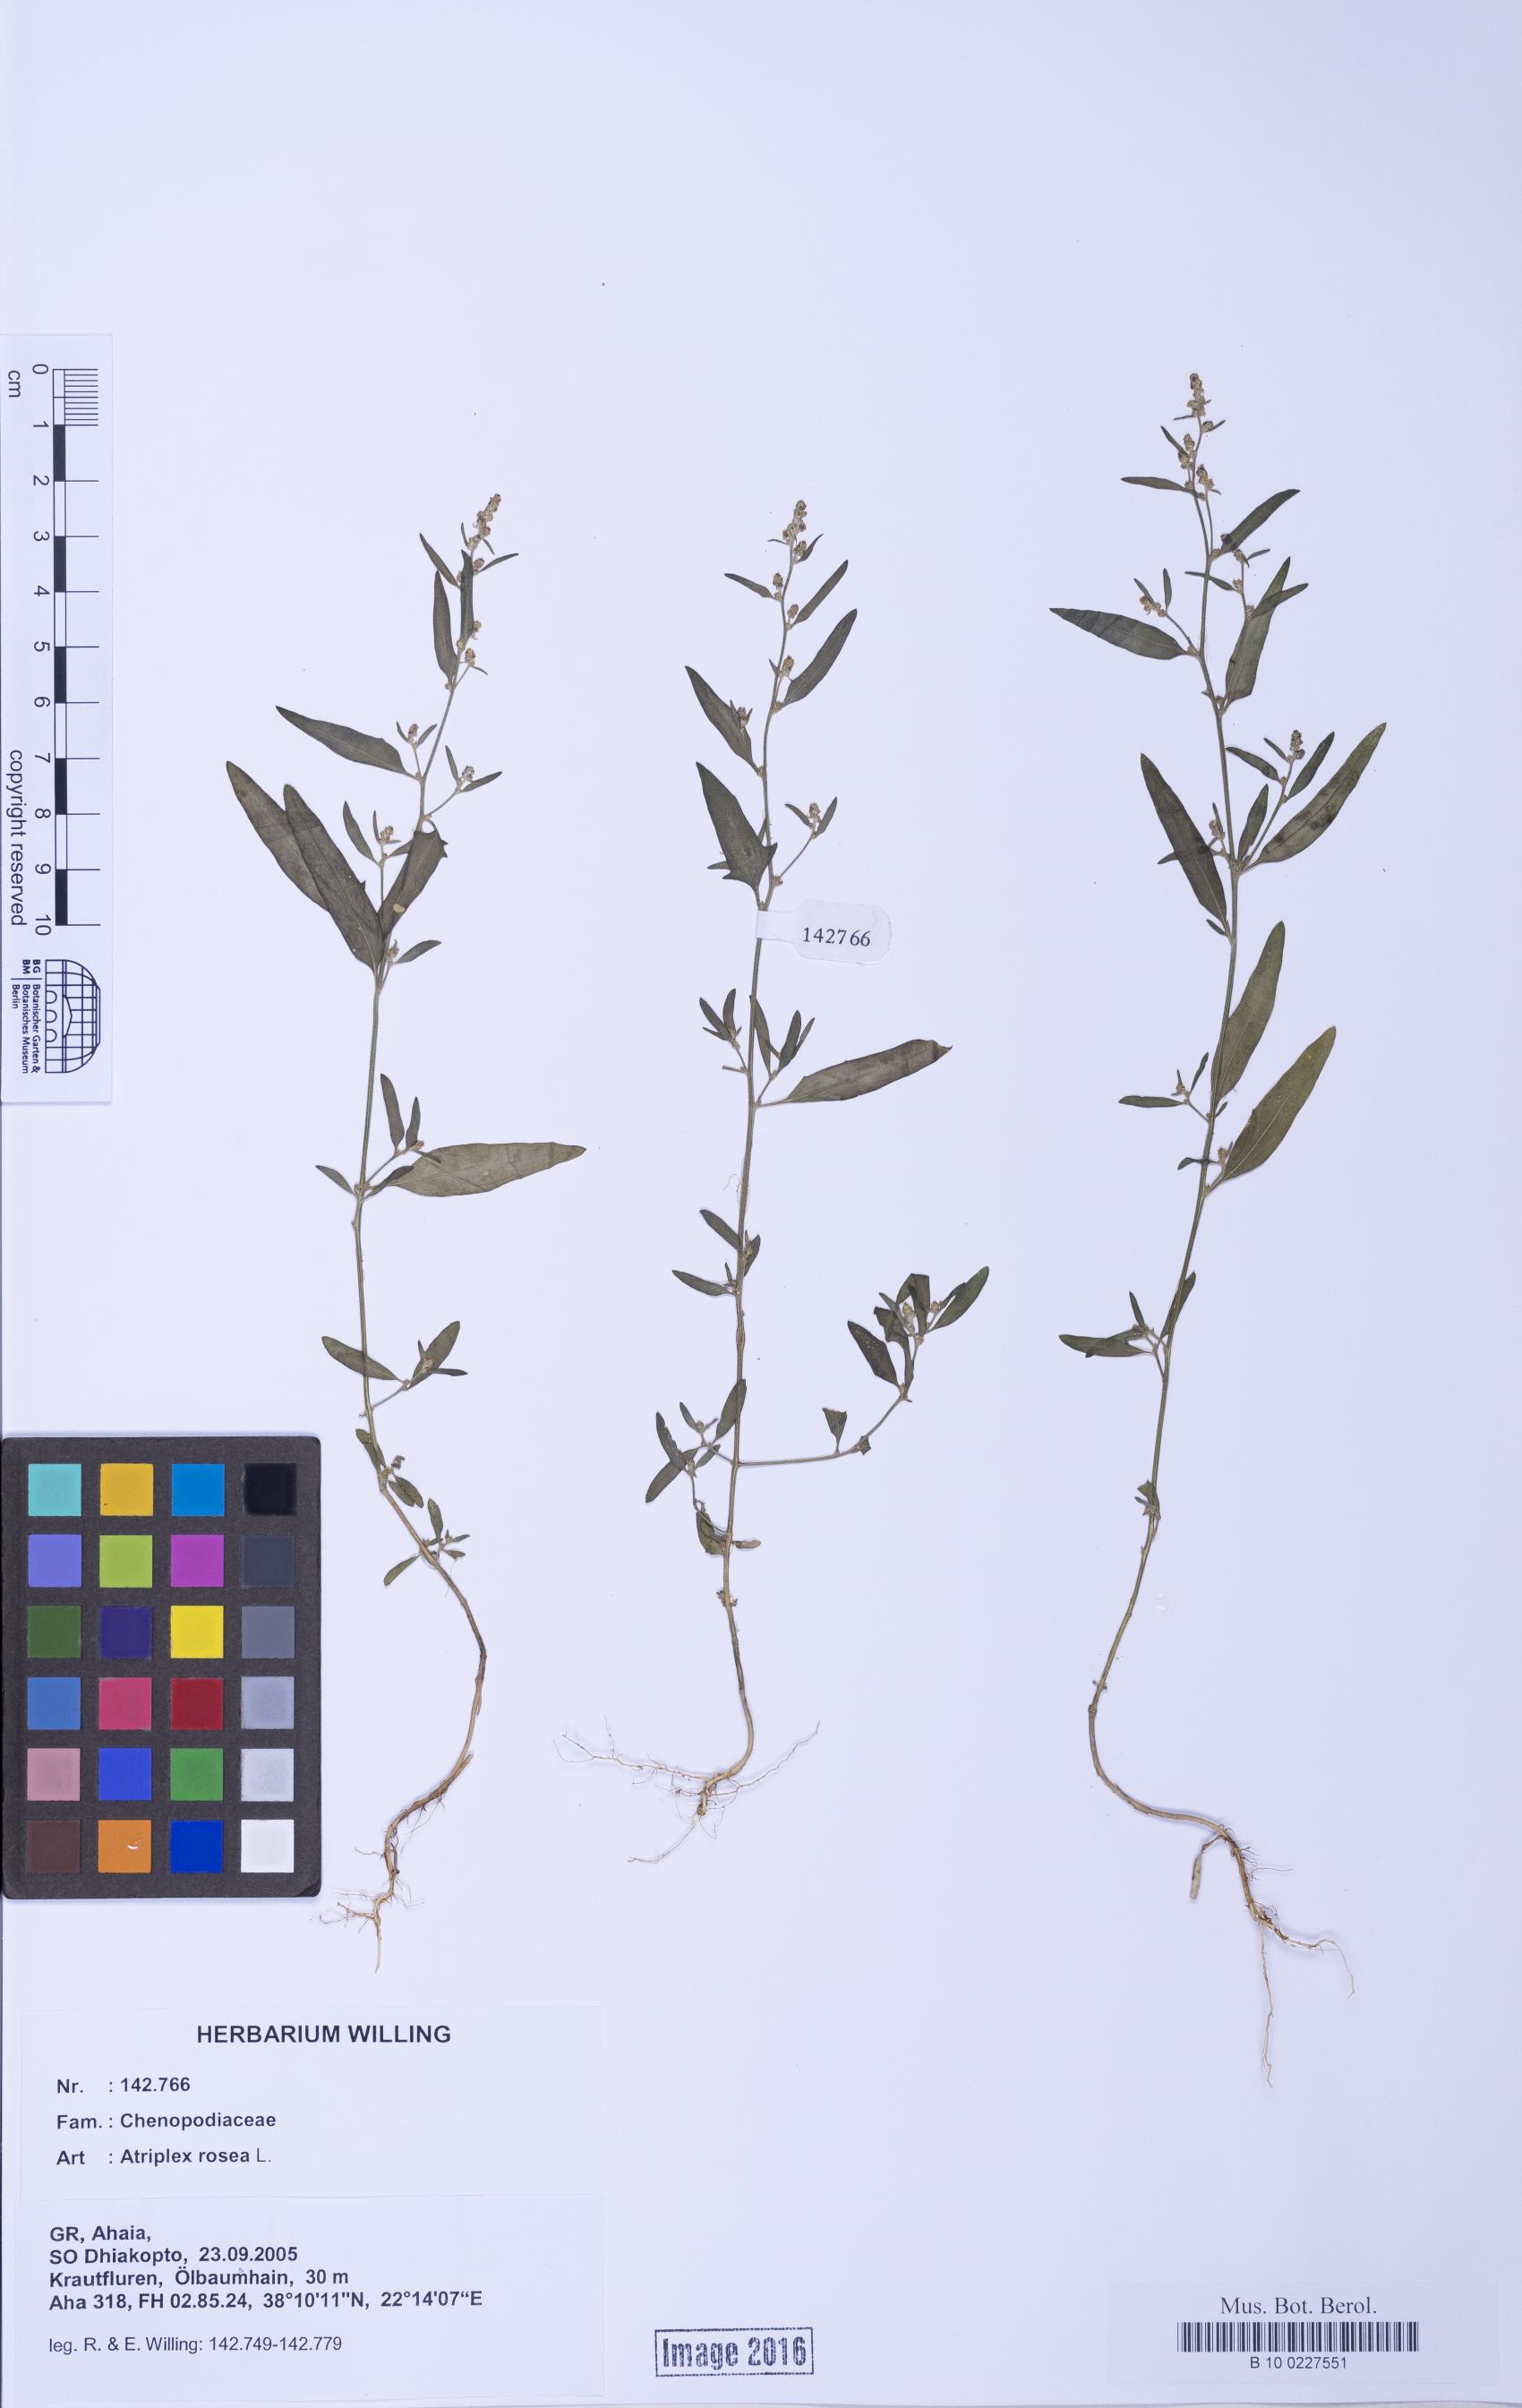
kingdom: Plantae
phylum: Tracheophyta
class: Magnoliopsida
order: Caryophyllales
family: Amaranthaceae
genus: Atriplex
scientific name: Atriplex rosea
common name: Tumbling saltweed
